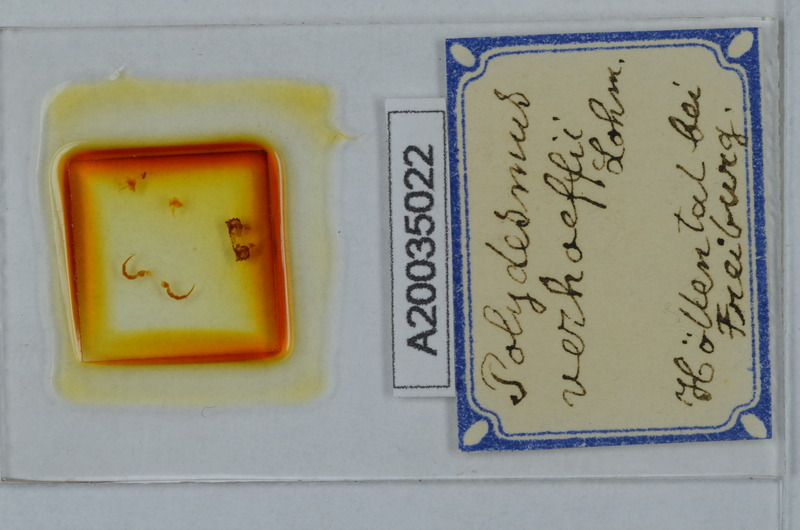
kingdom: Animalia
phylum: Arthropoda
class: Diplopoda
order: Polydesmida
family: Polydesmidae
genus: Polydesmus
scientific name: Polydesmus angustus
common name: Flat millipede
